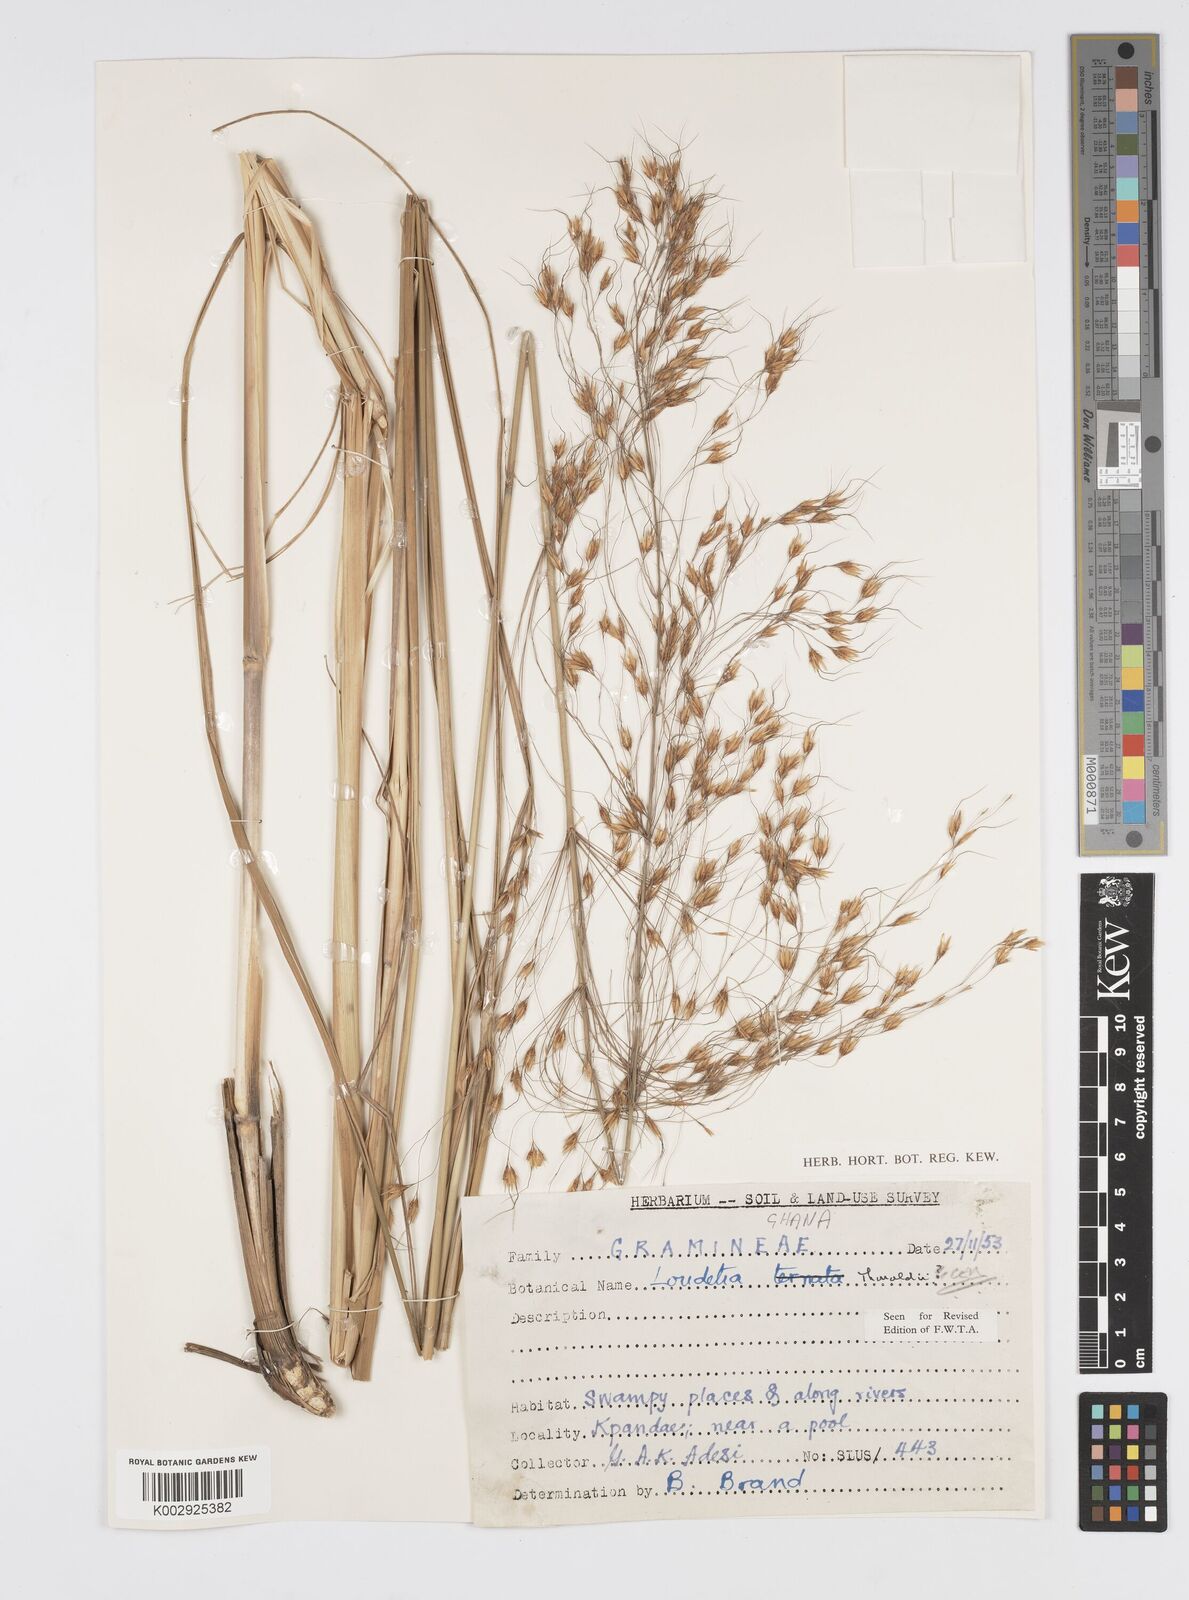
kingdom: Plantae
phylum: Tracheophyta
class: Liliopsida
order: Poales
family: Poaceae
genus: Loudetiopsis
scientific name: Loudetiopsis thoroldii
